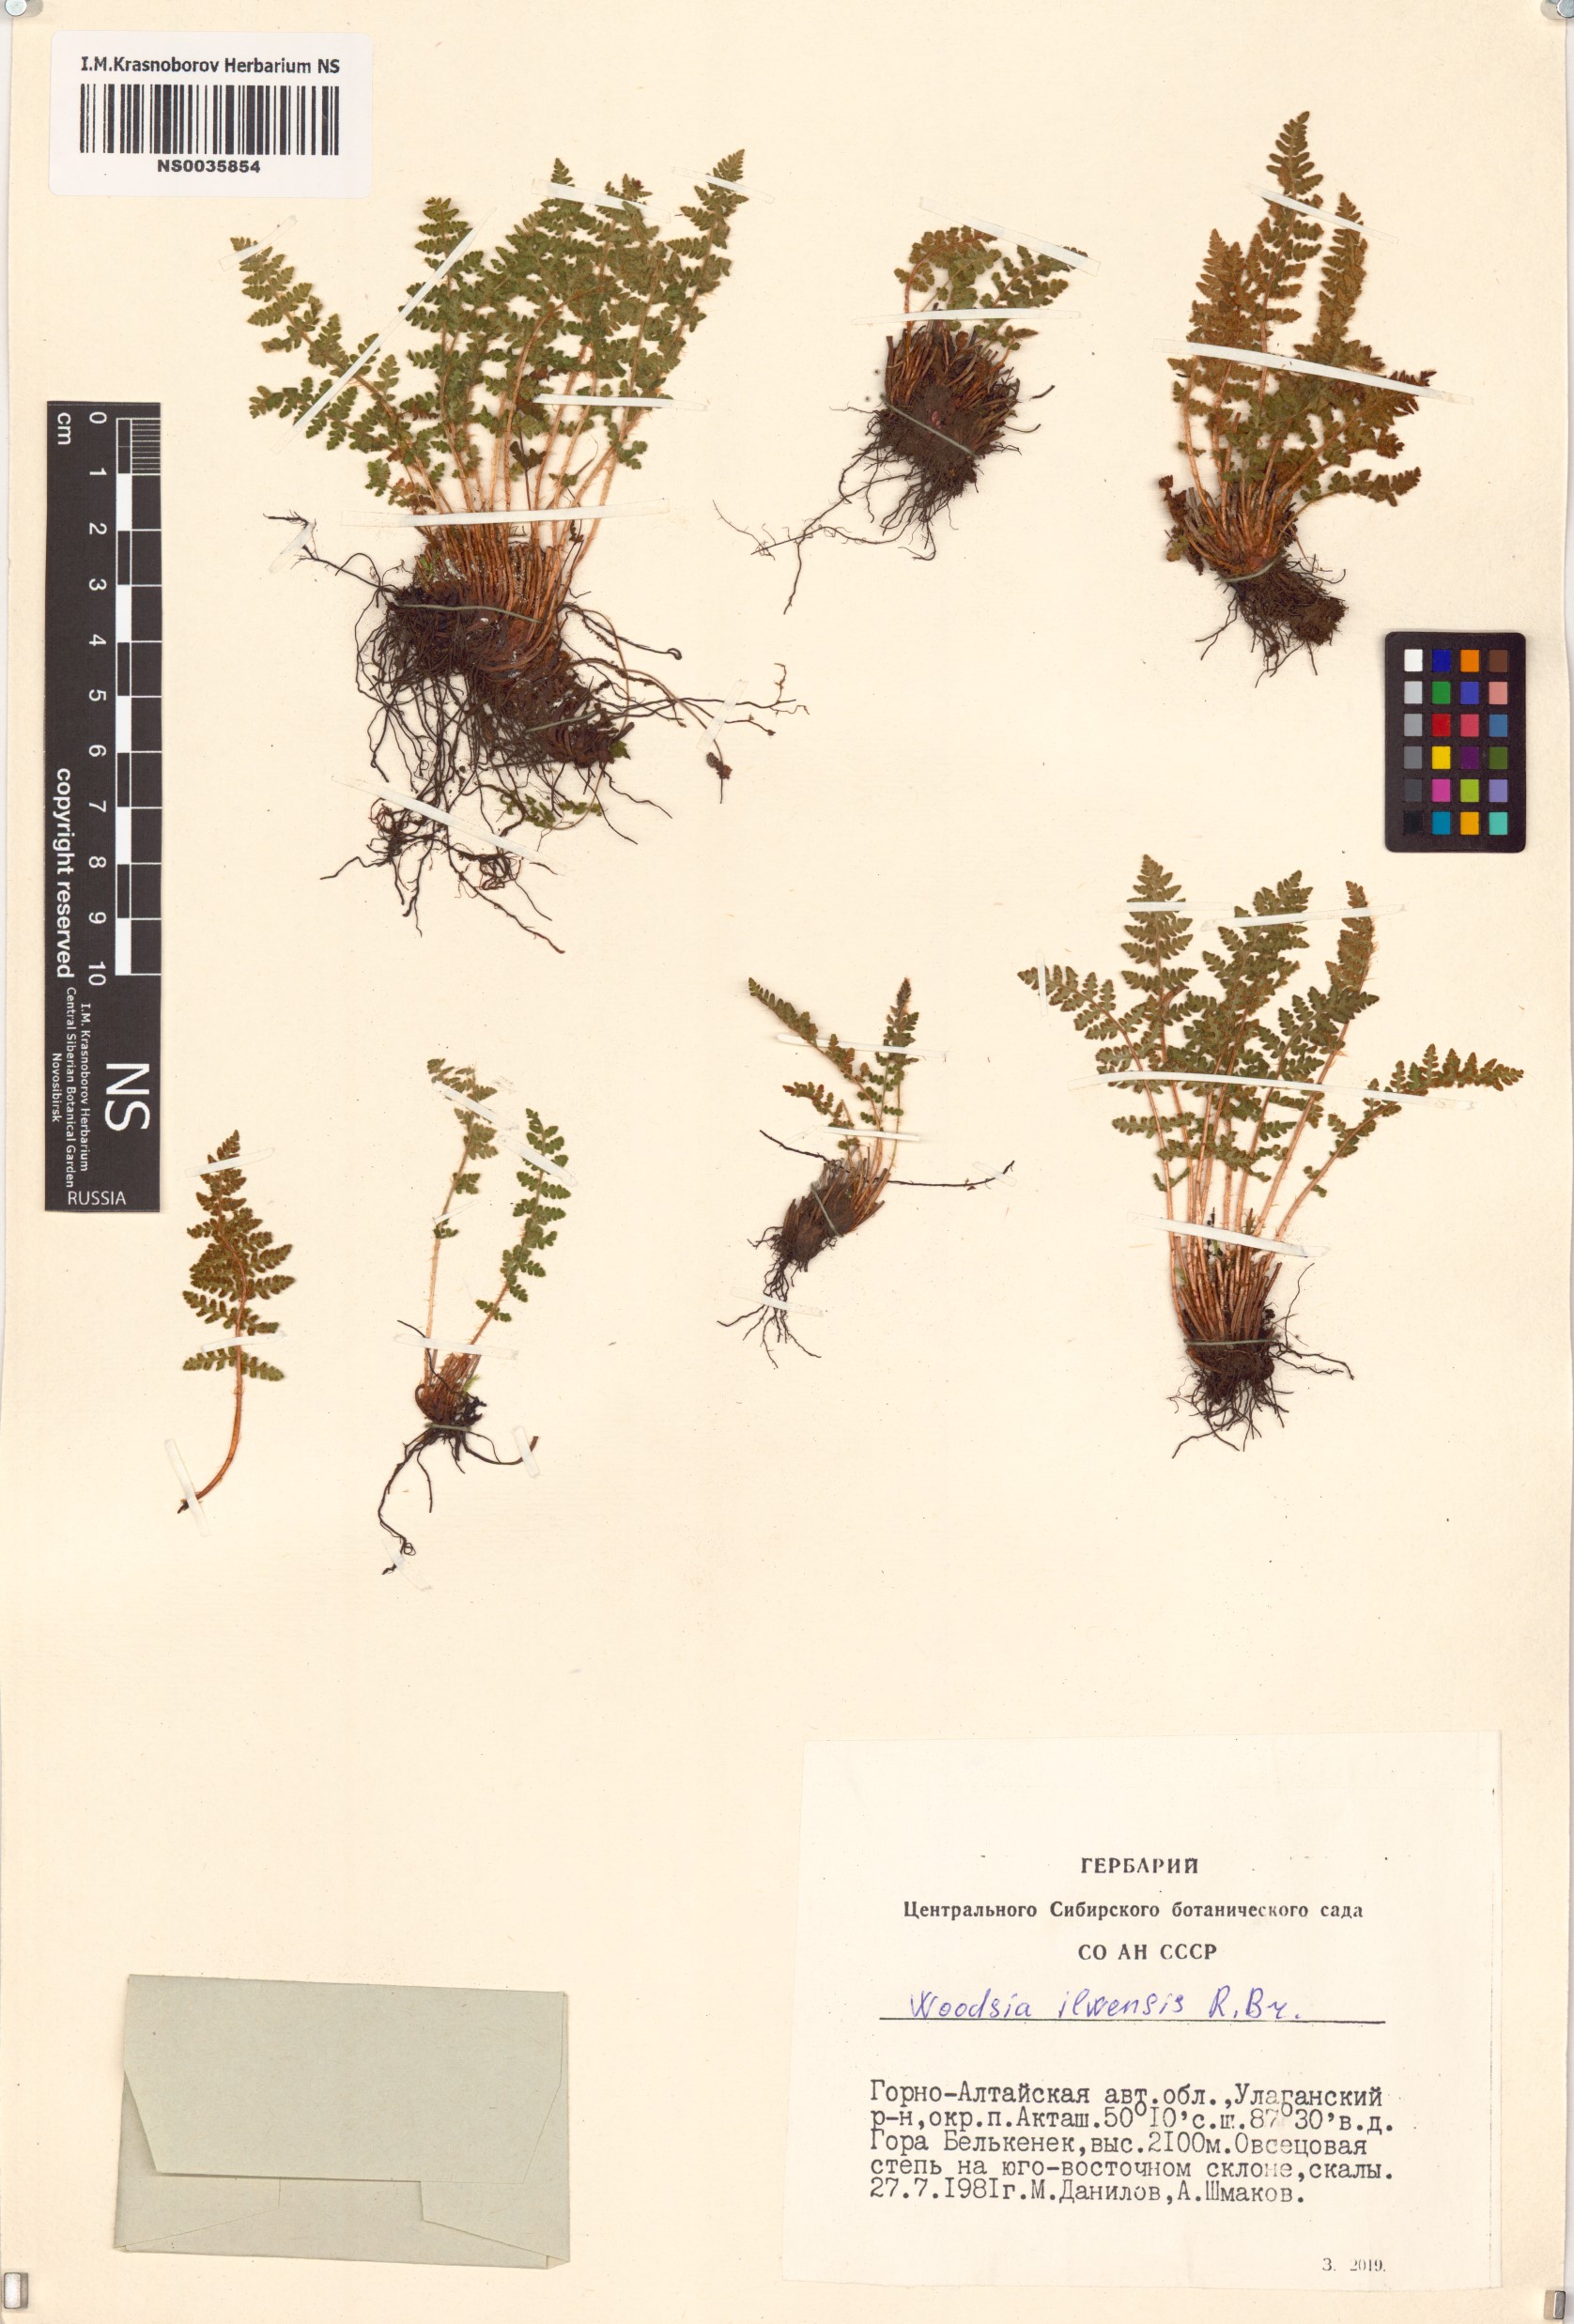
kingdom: Plantae
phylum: Tracheophyta
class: Polypodiopsida
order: Polypodiales
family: Woodsiaceae
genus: Woodsia
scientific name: Woodsia ilvensis
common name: Fragrant woodsia
